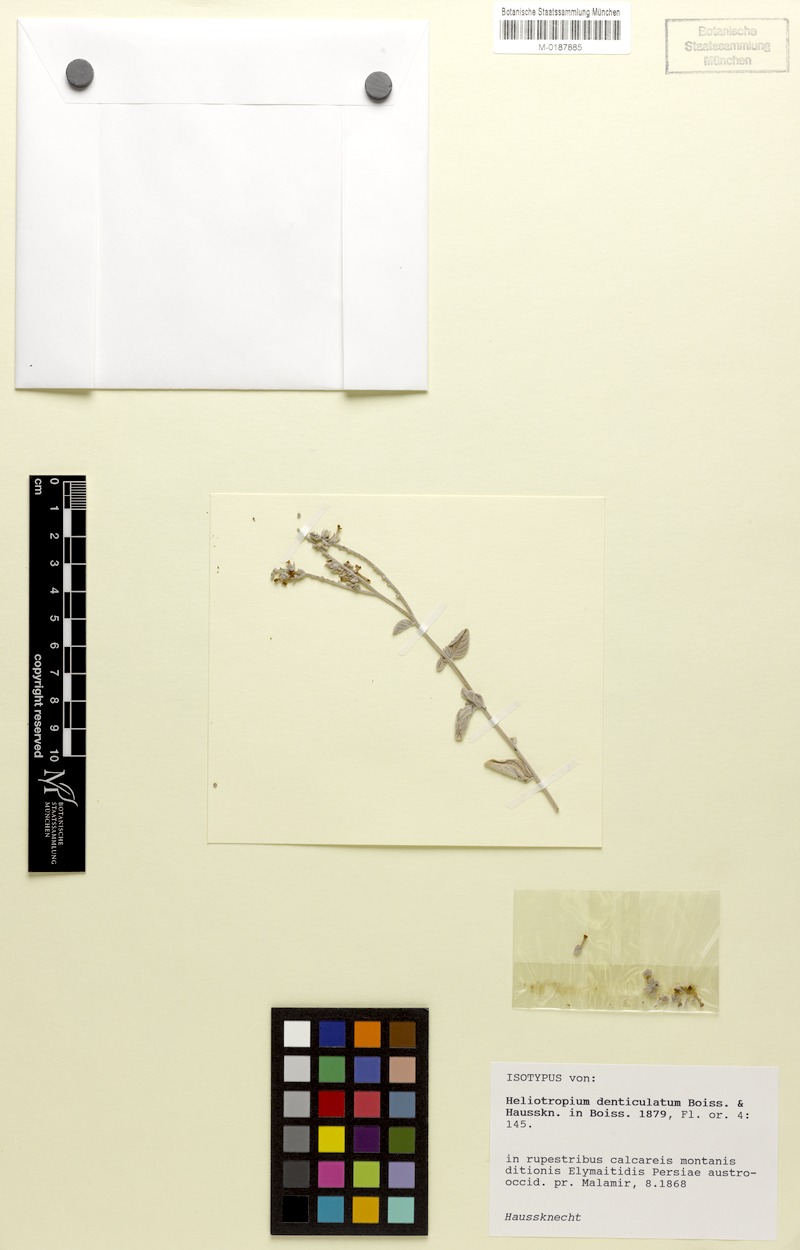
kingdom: Plantae
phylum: Tracheophyta
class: Magnoliopsida
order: Boraginales
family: Heliotropiaceae
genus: Heliotropium
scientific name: Heliotropium denticulatum
